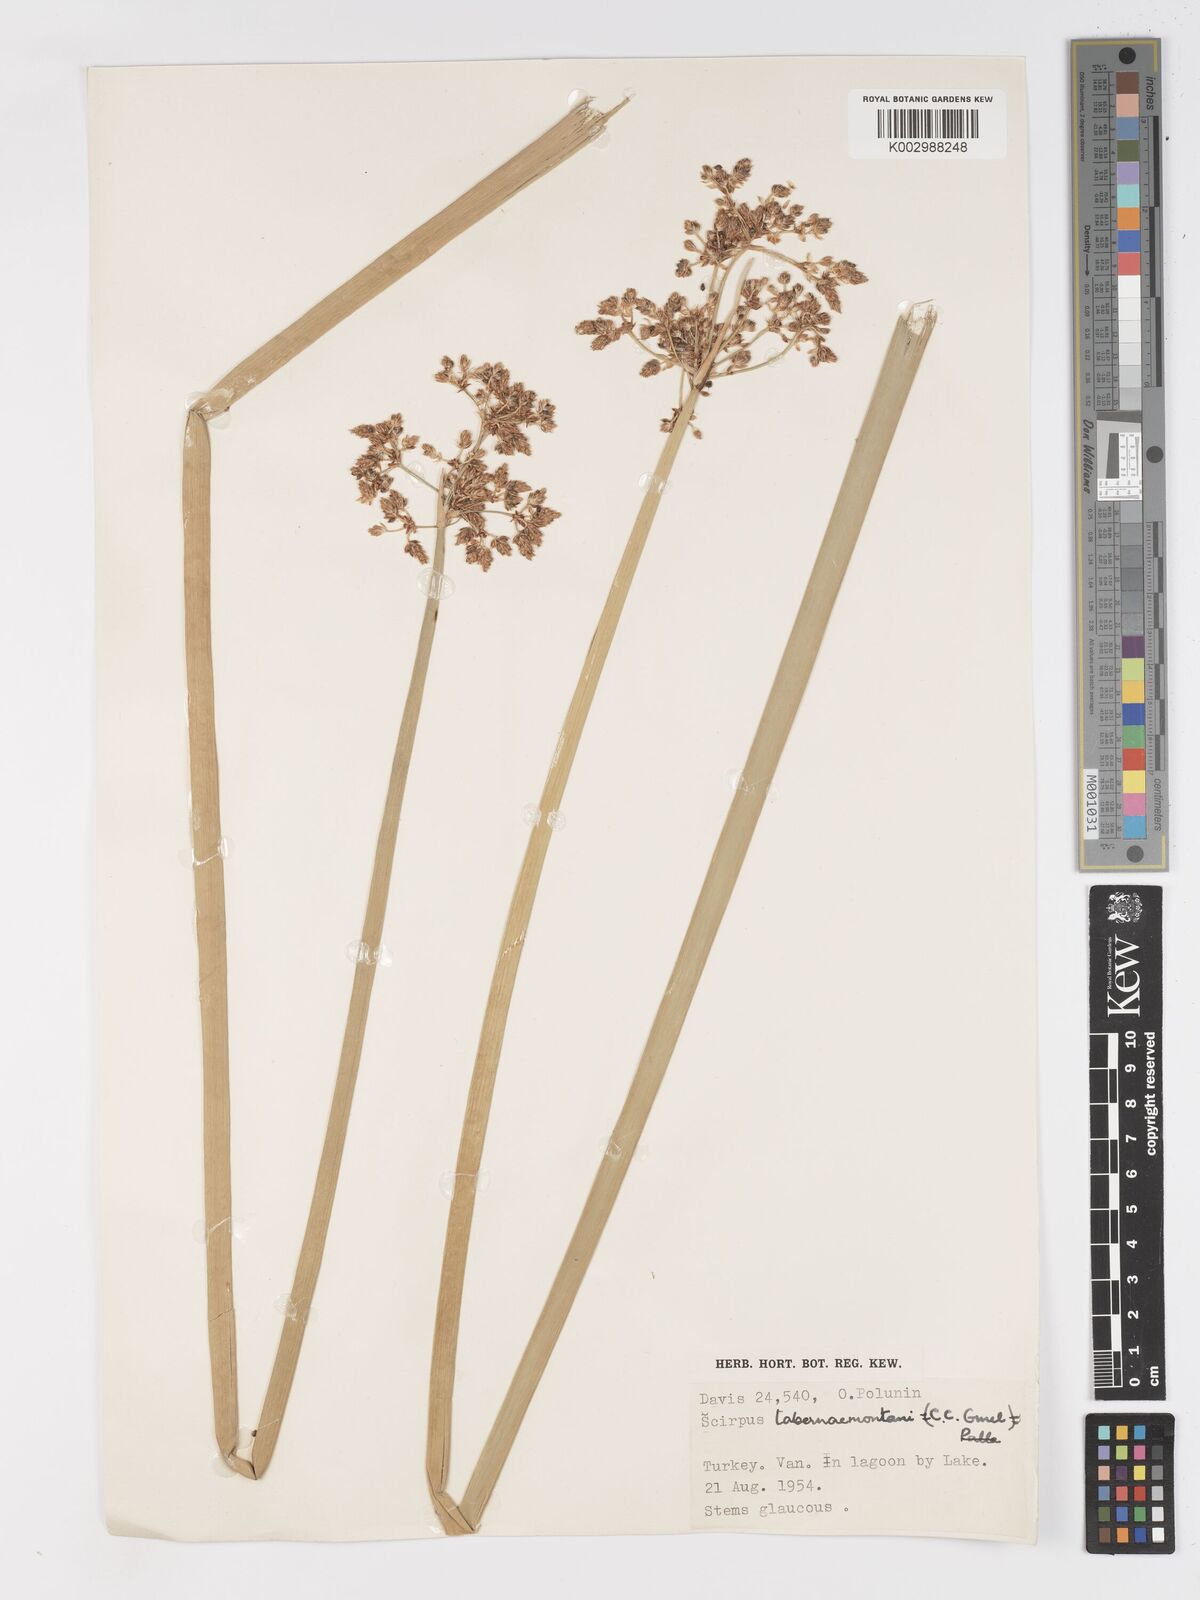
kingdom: Plantae
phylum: Tracheophyta
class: Liliopsida
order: Poales
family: Cyperaceae
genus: Schoenoplectus
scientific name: Schoenoplectus tabernaemontani
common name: Grey club-rush
